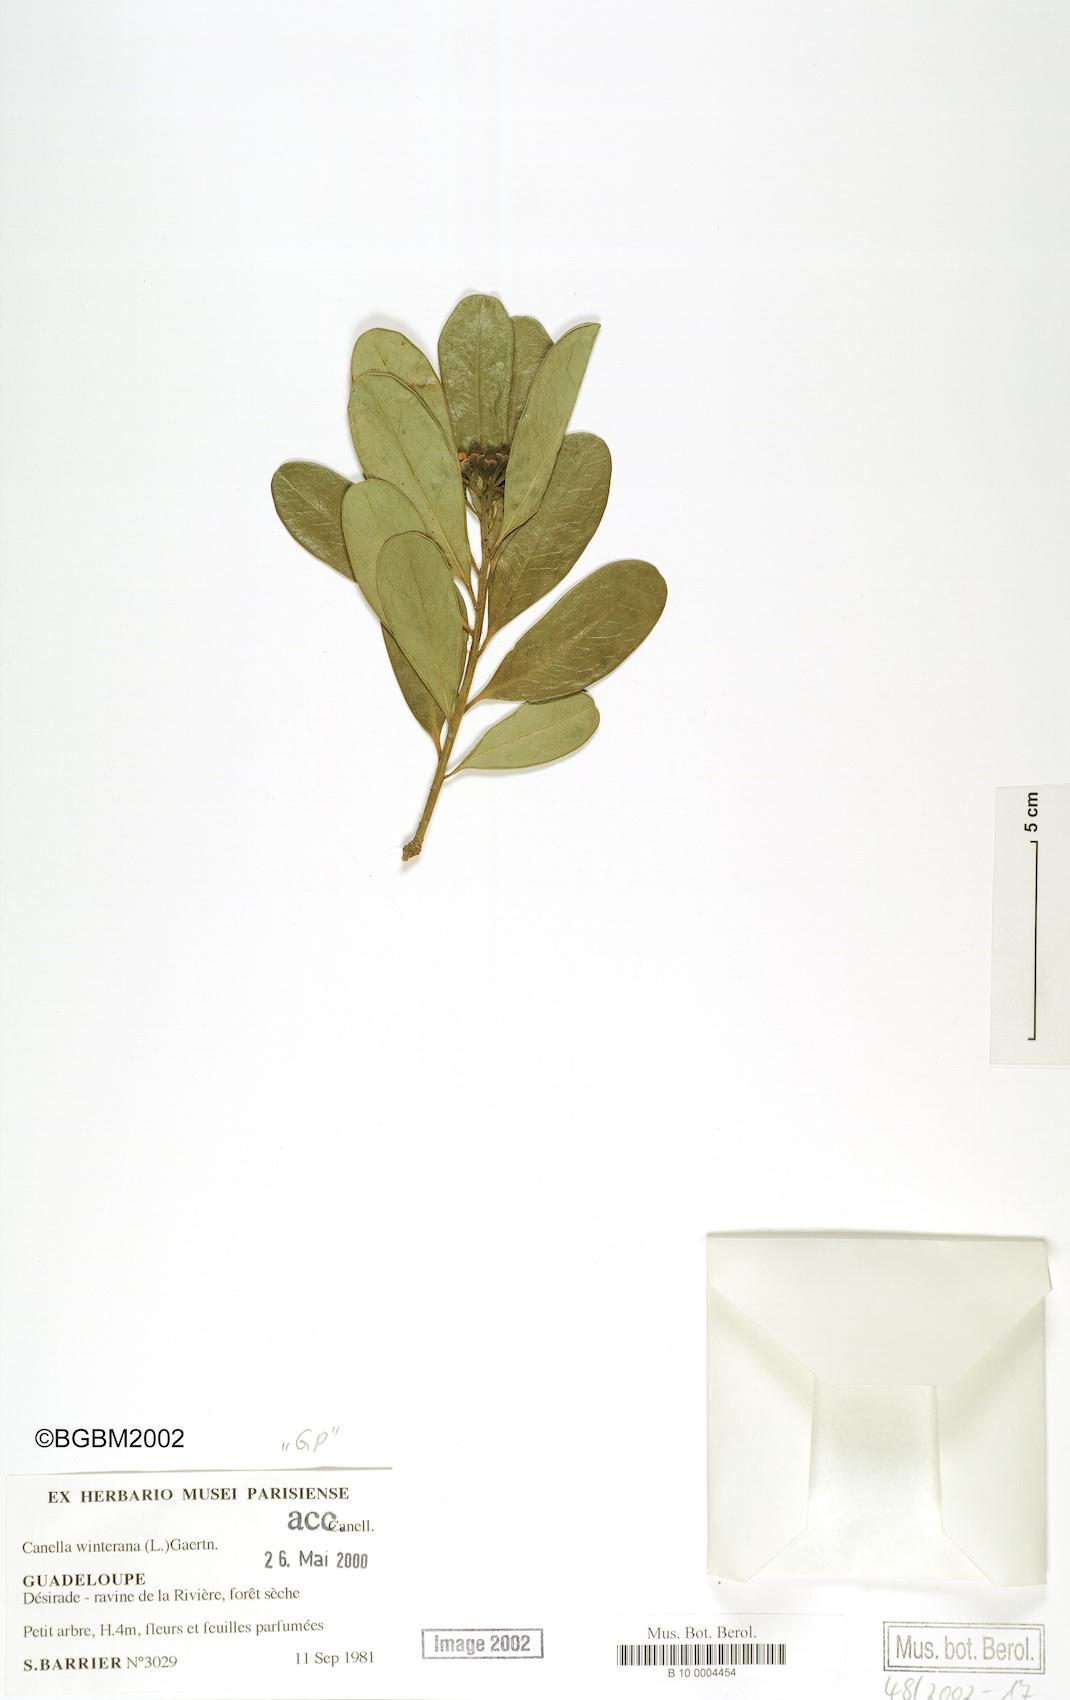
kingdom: Plantae
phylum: Tracheophyta
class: Magnoliopsida
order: Canellales
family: Canellaceae
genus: Canella
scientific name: Canella winterana
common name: Canella
